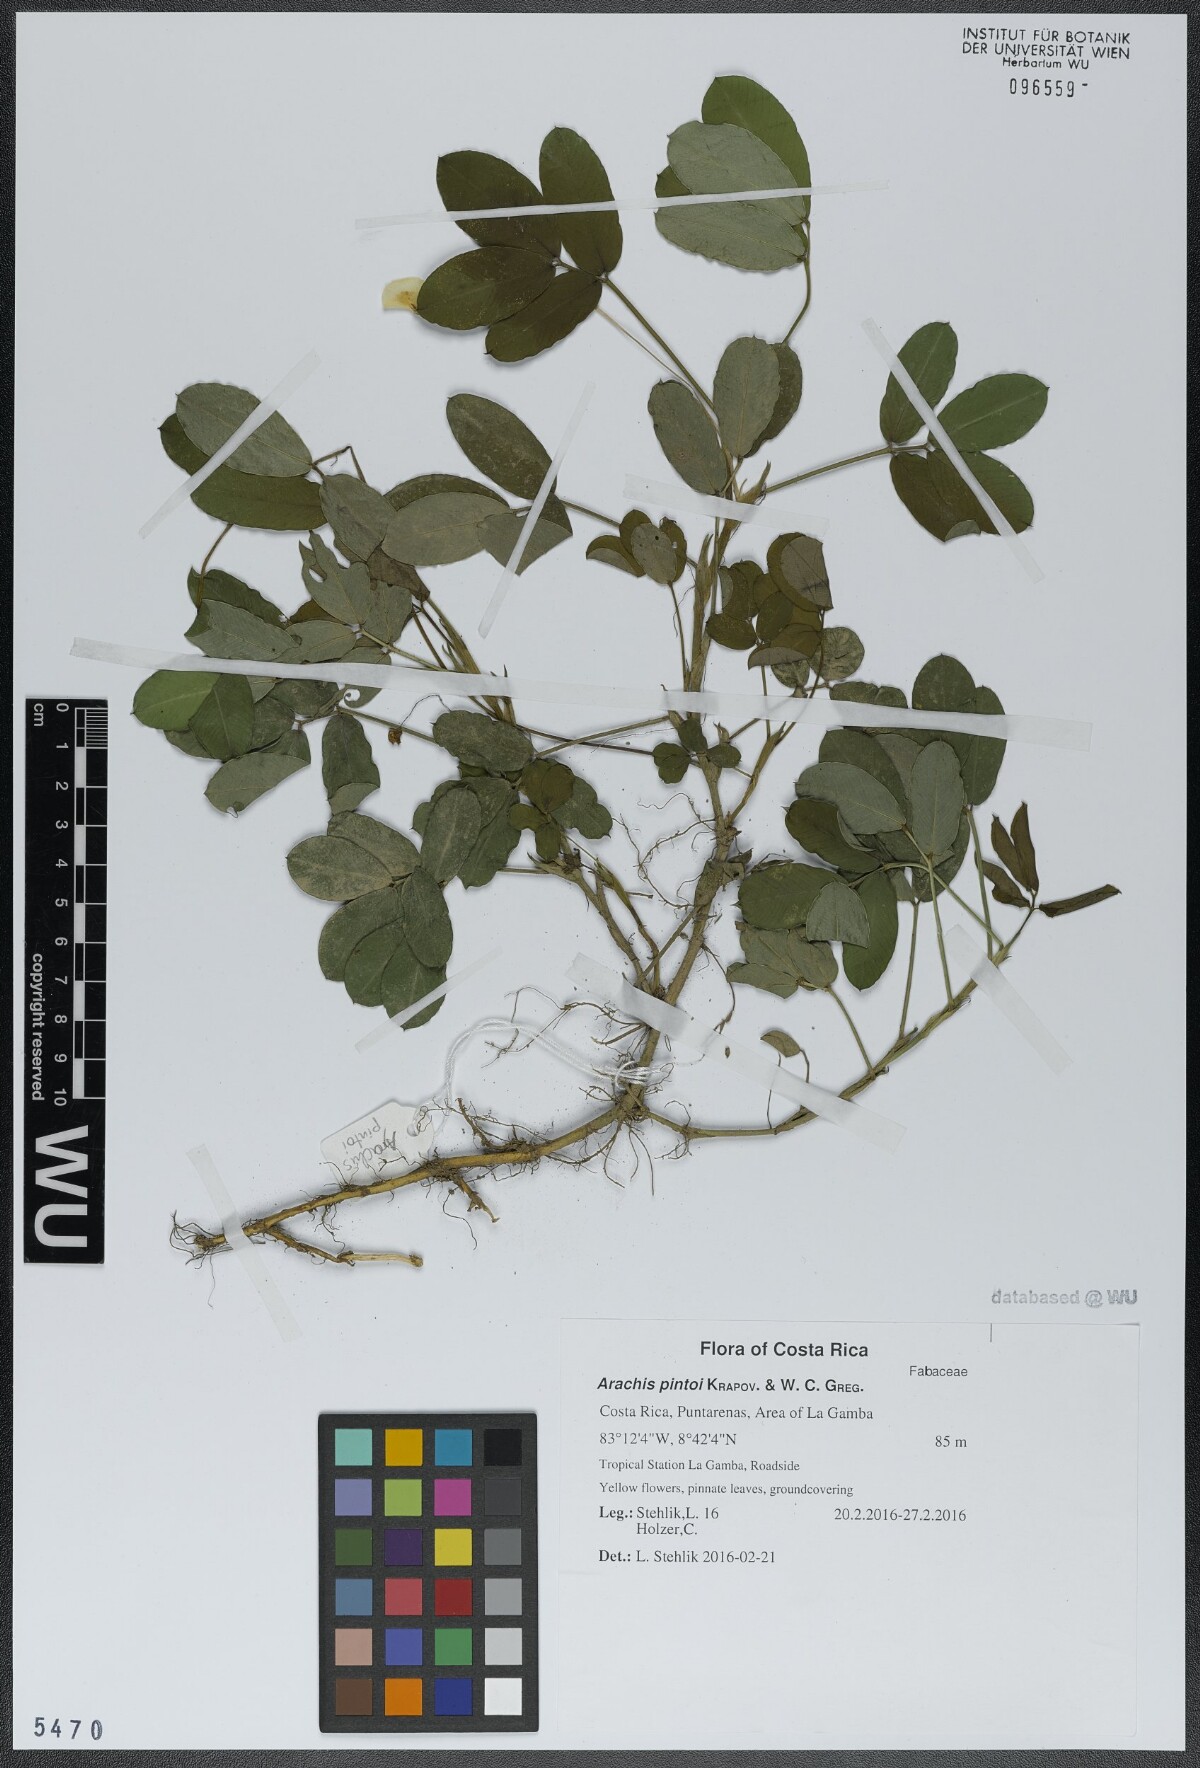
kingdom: Plantae
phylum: Tracheophyta
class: Magnoliopsida
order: Fabales
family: Fabaceae
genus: Arachis
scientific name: Arachis pintoi
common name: Pinto peanut
